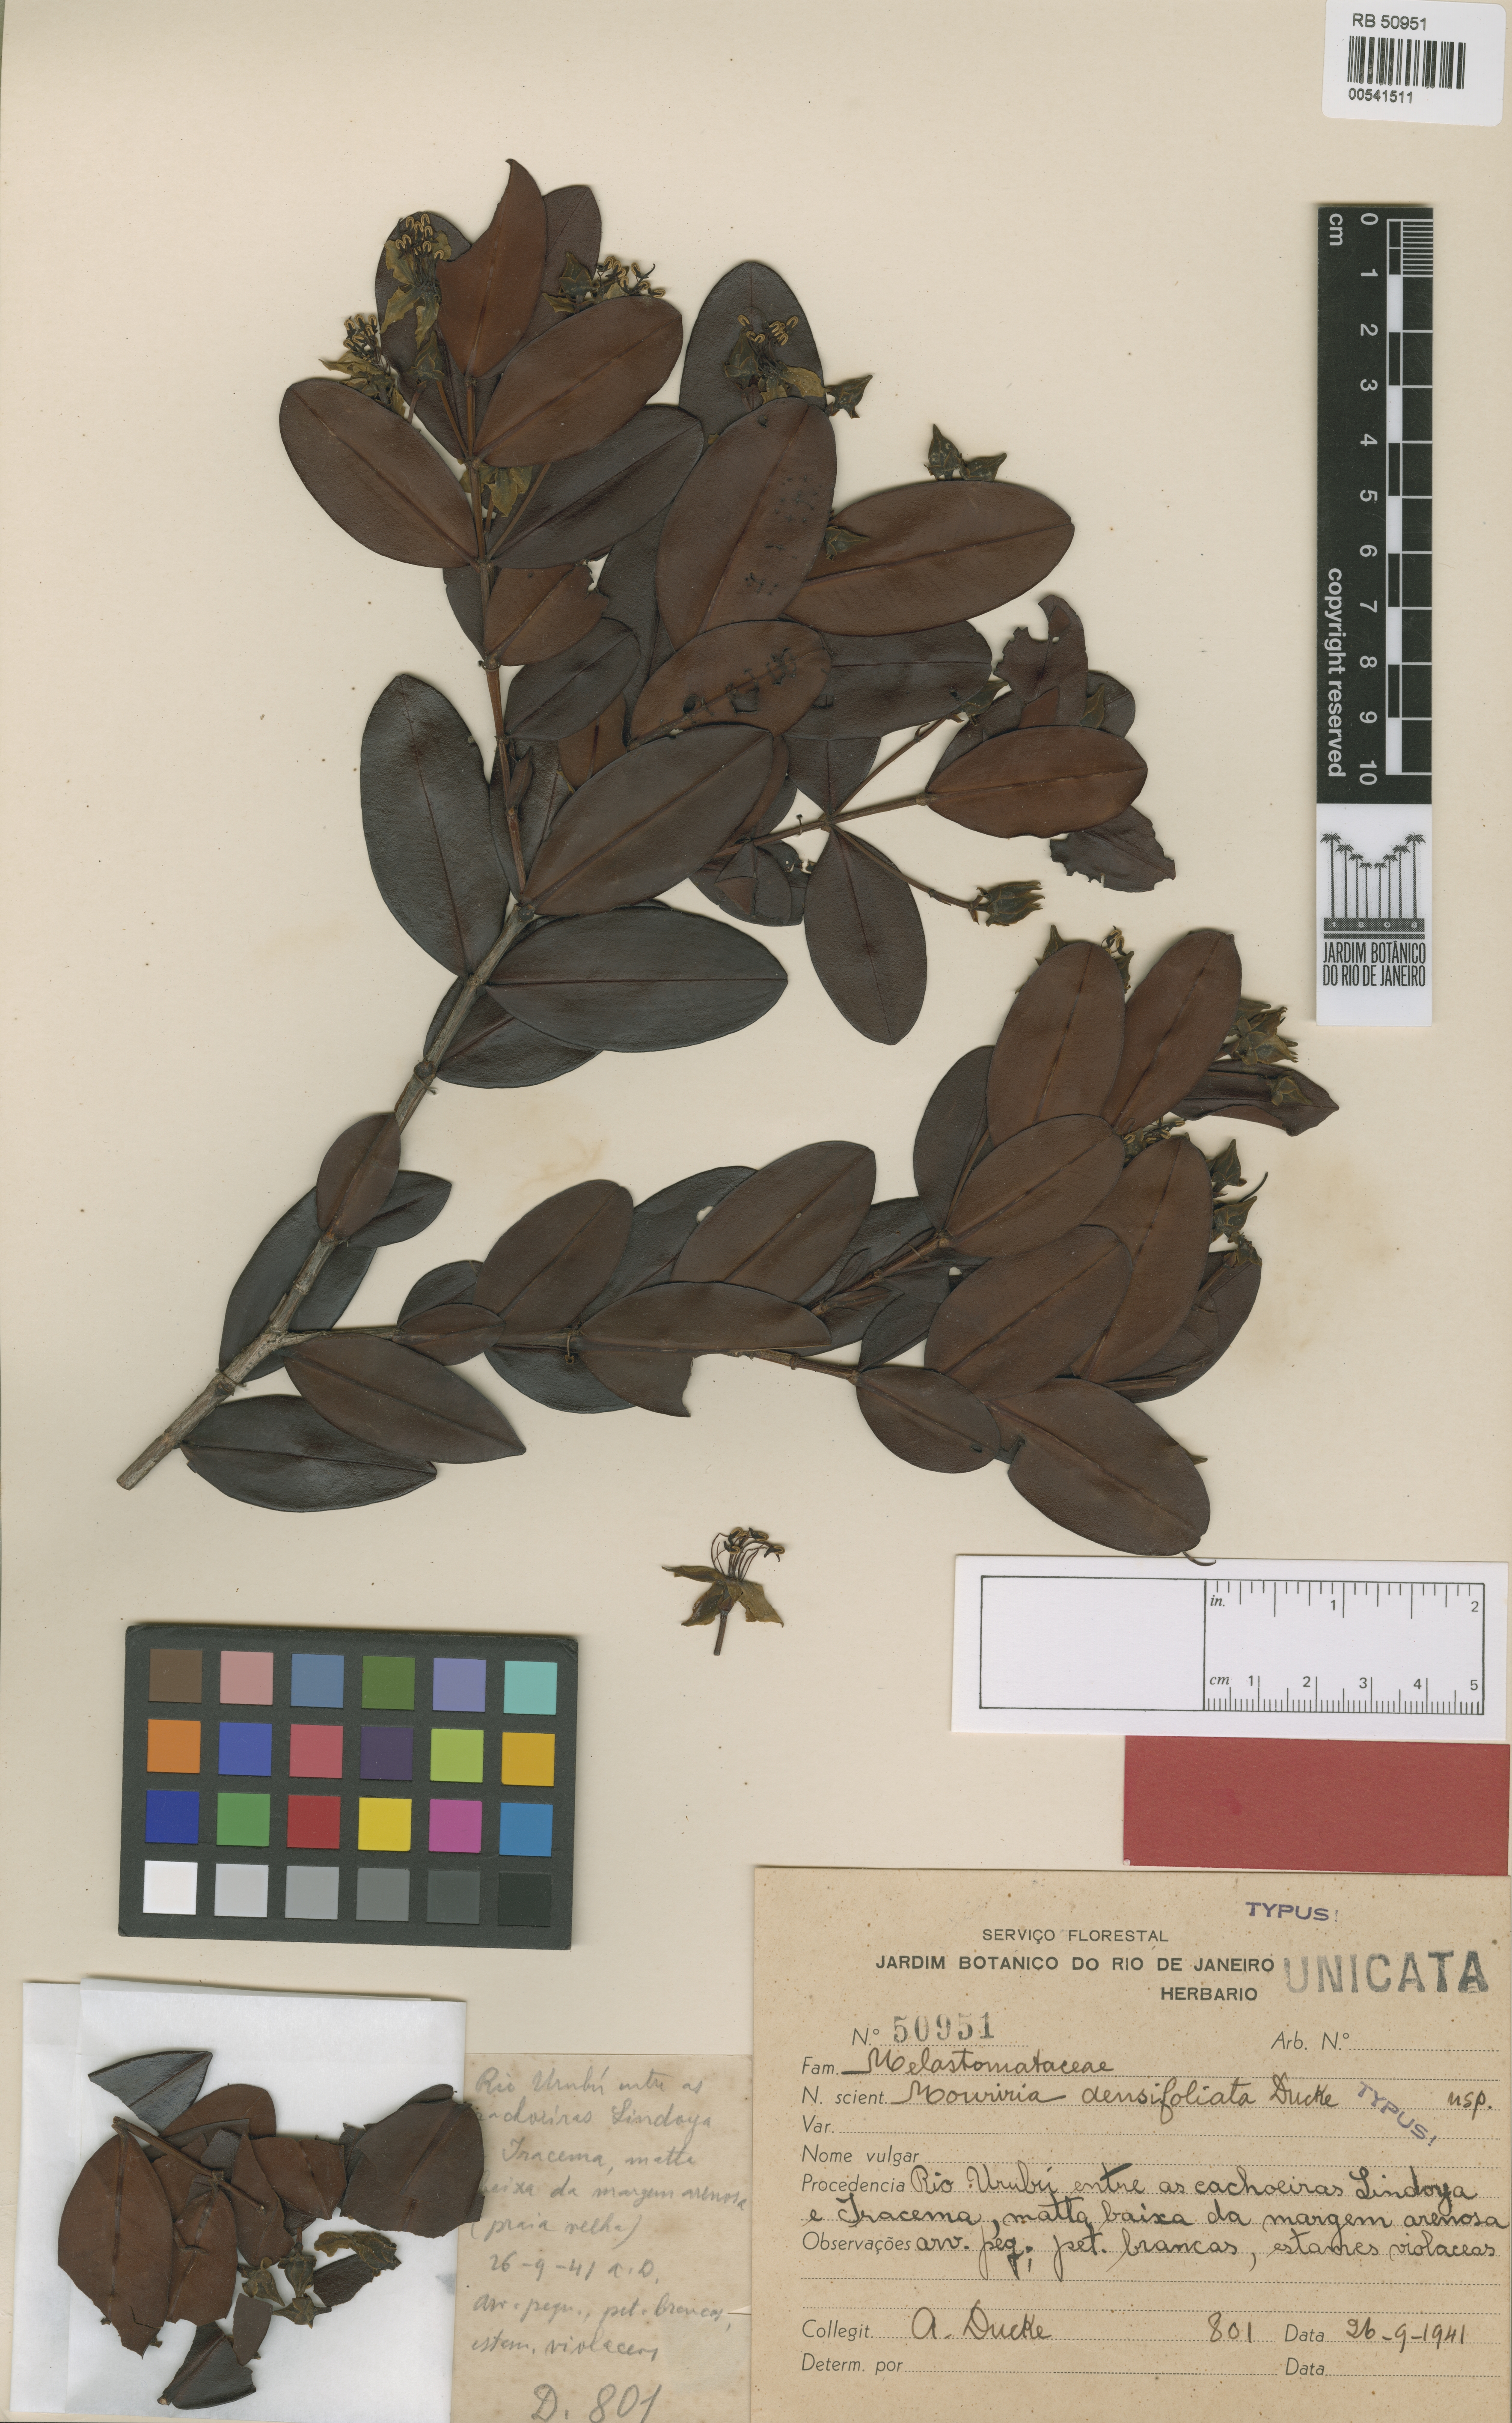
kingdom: Plantae
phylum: Tracheophyta
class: Magnoliopsida
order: Myrtales
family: Melastomataceae
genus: Mouriri
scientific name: Mouriri densifoliata
